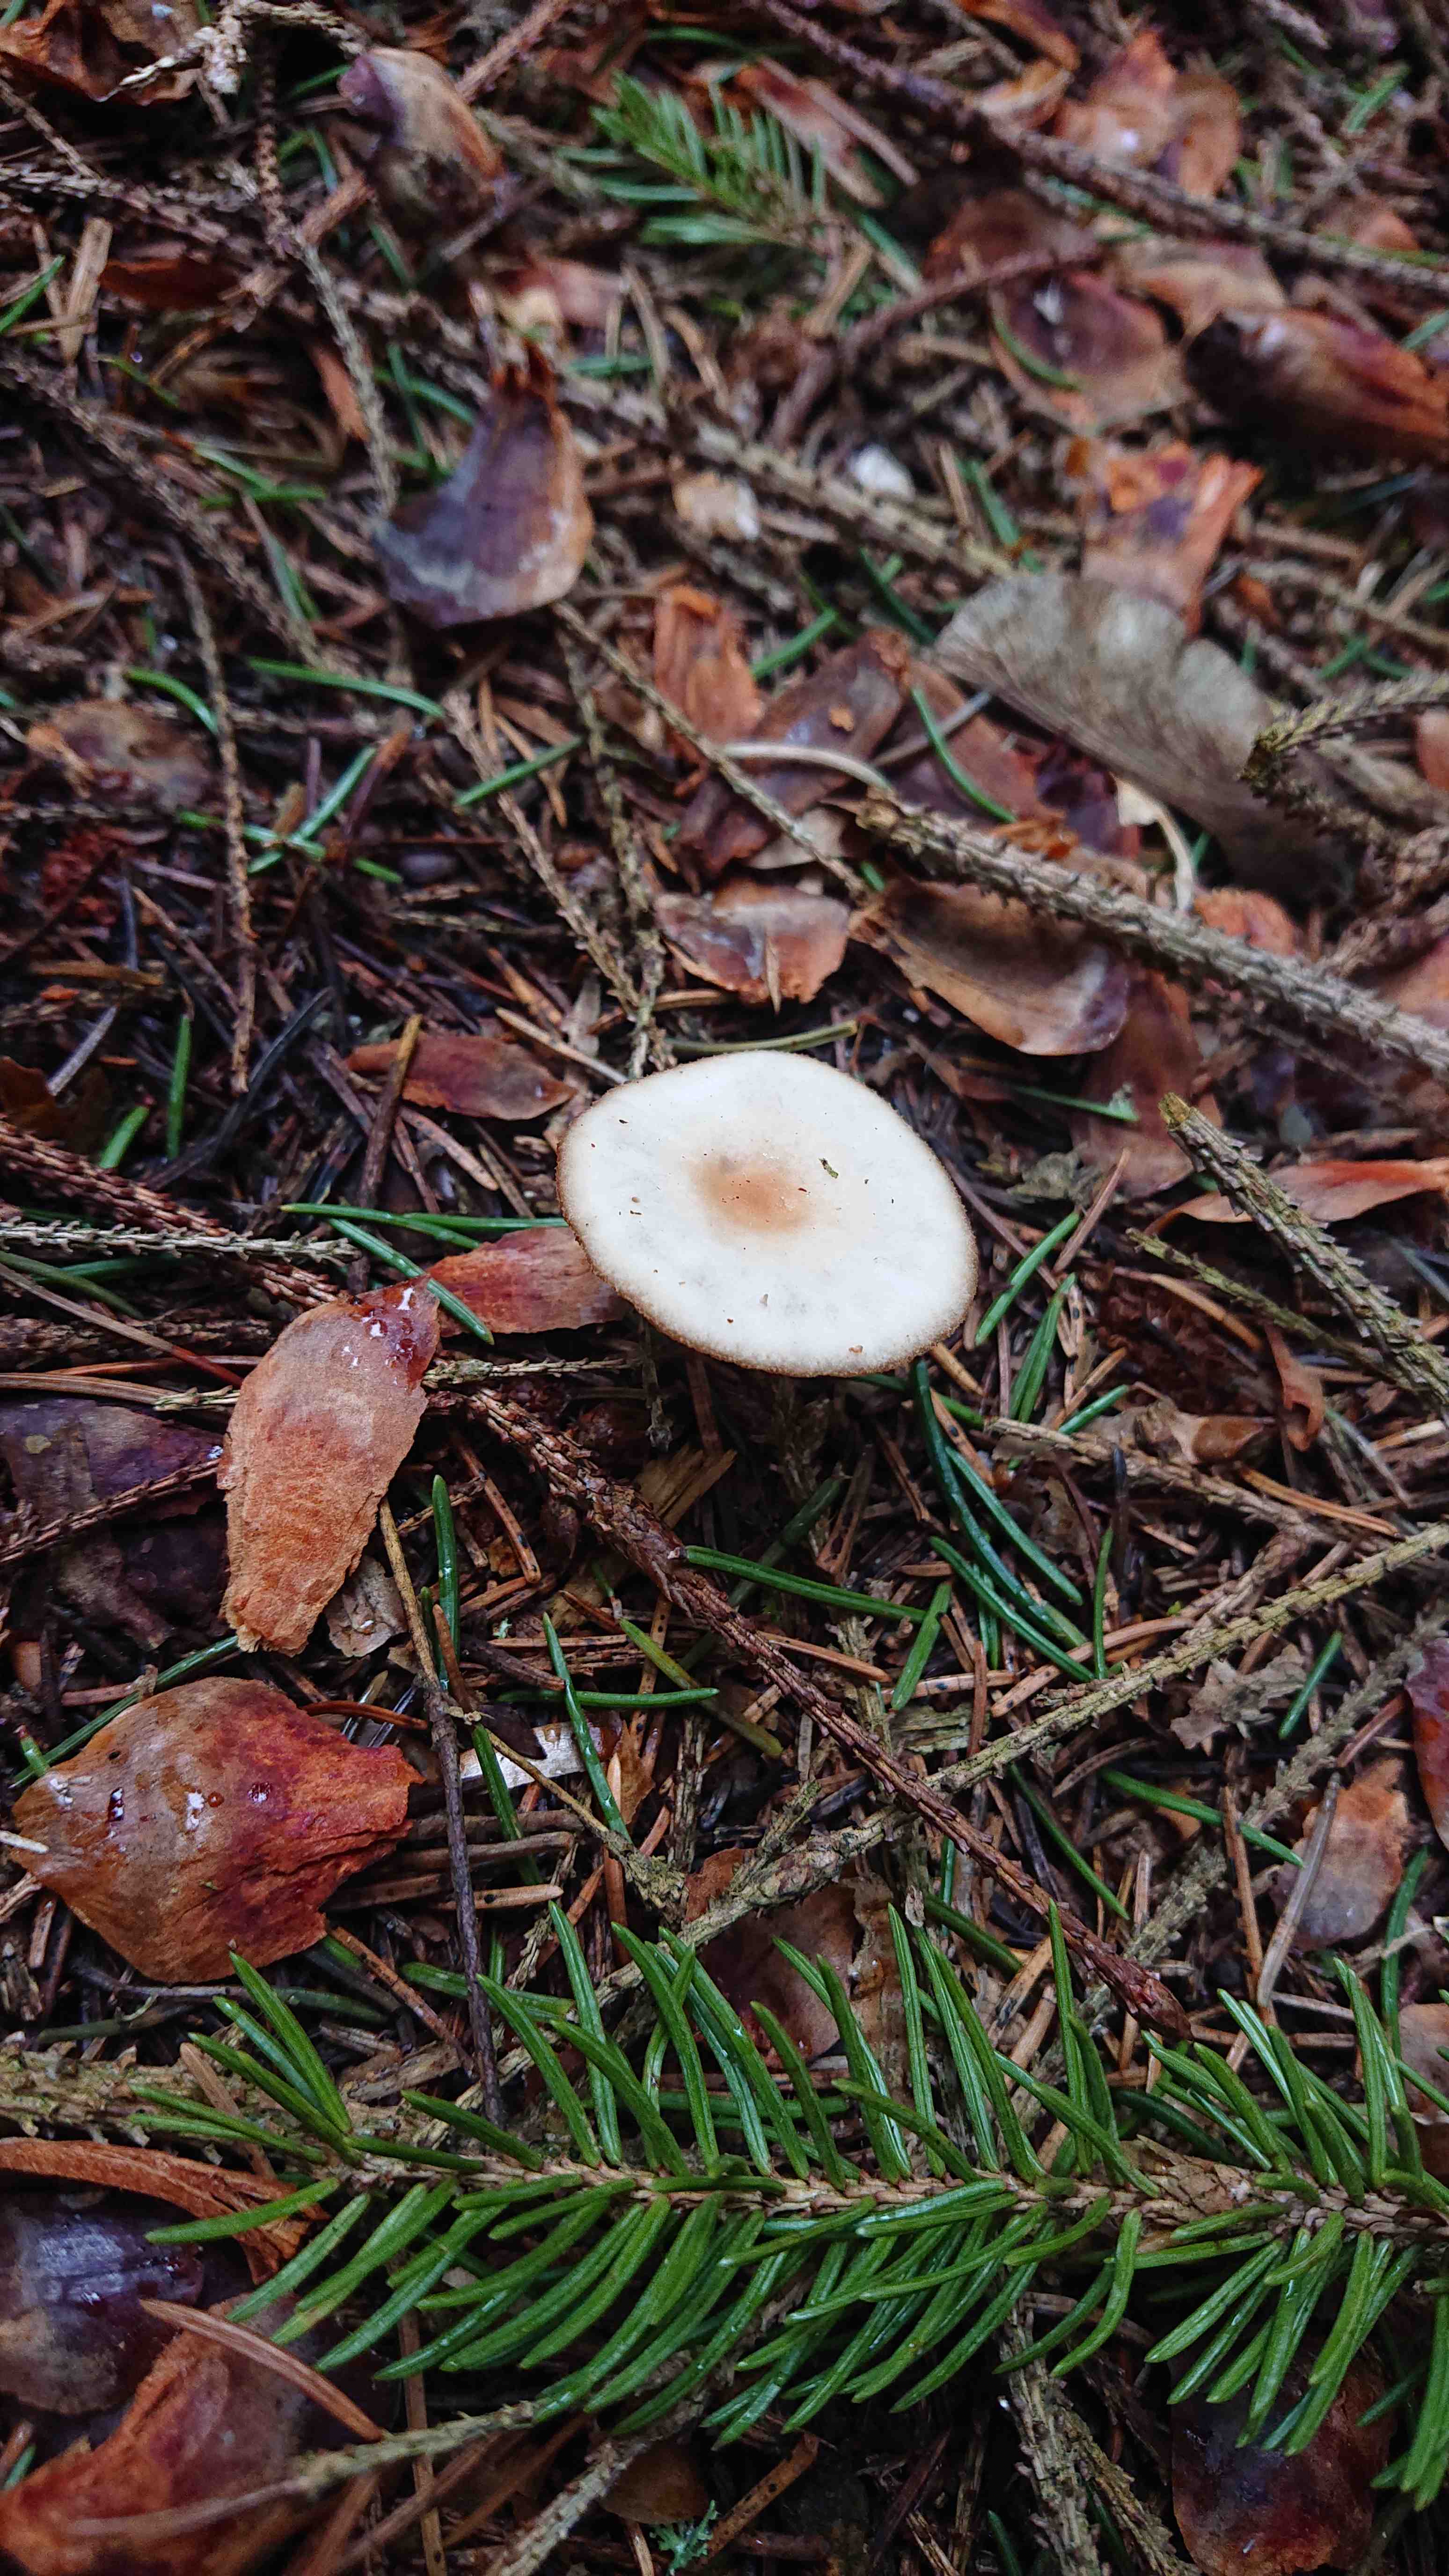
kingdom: Fungi
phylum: Basidiomycota
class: Agaricomycetes
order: Agaricales
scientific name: Agaricales
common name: champignonordenen
